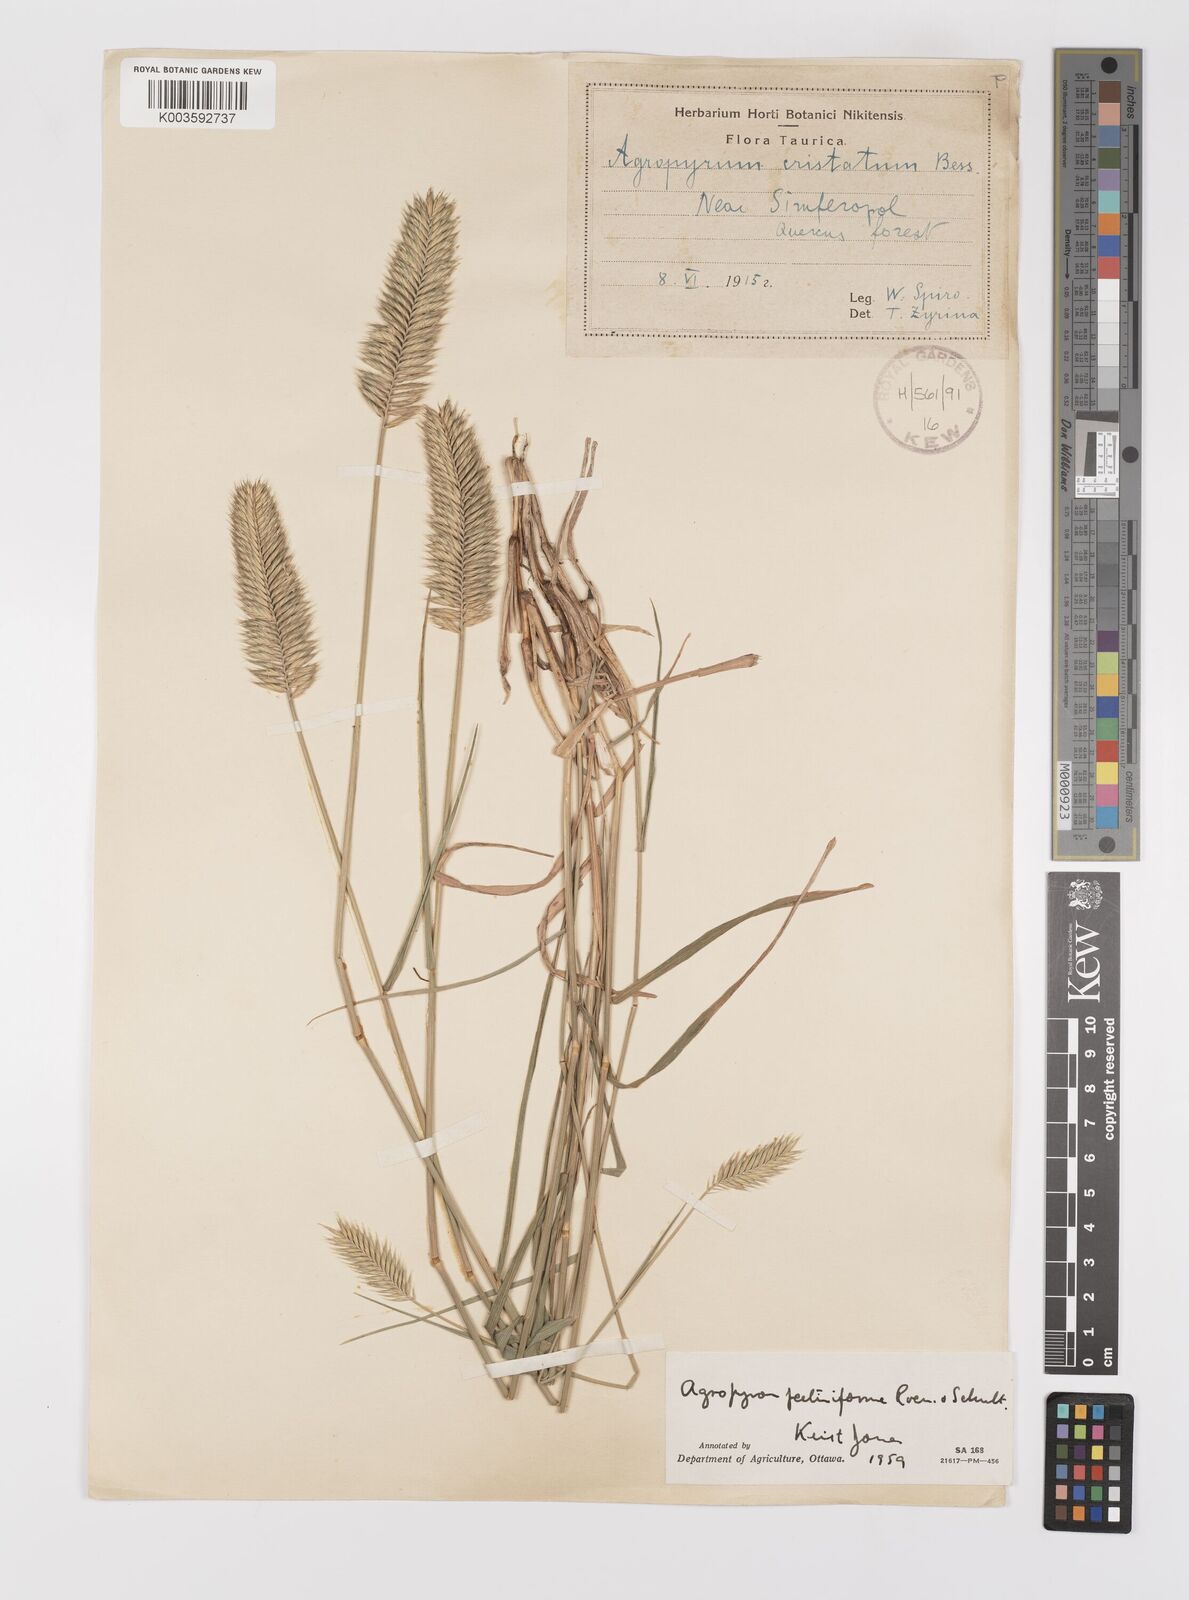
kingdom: Plantae
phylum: Tracheophyta
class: Liliopsida
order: Poales
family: Poaceae
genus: Agropyron
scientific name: Agropyron cristatum
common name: Crested wheatgrass
